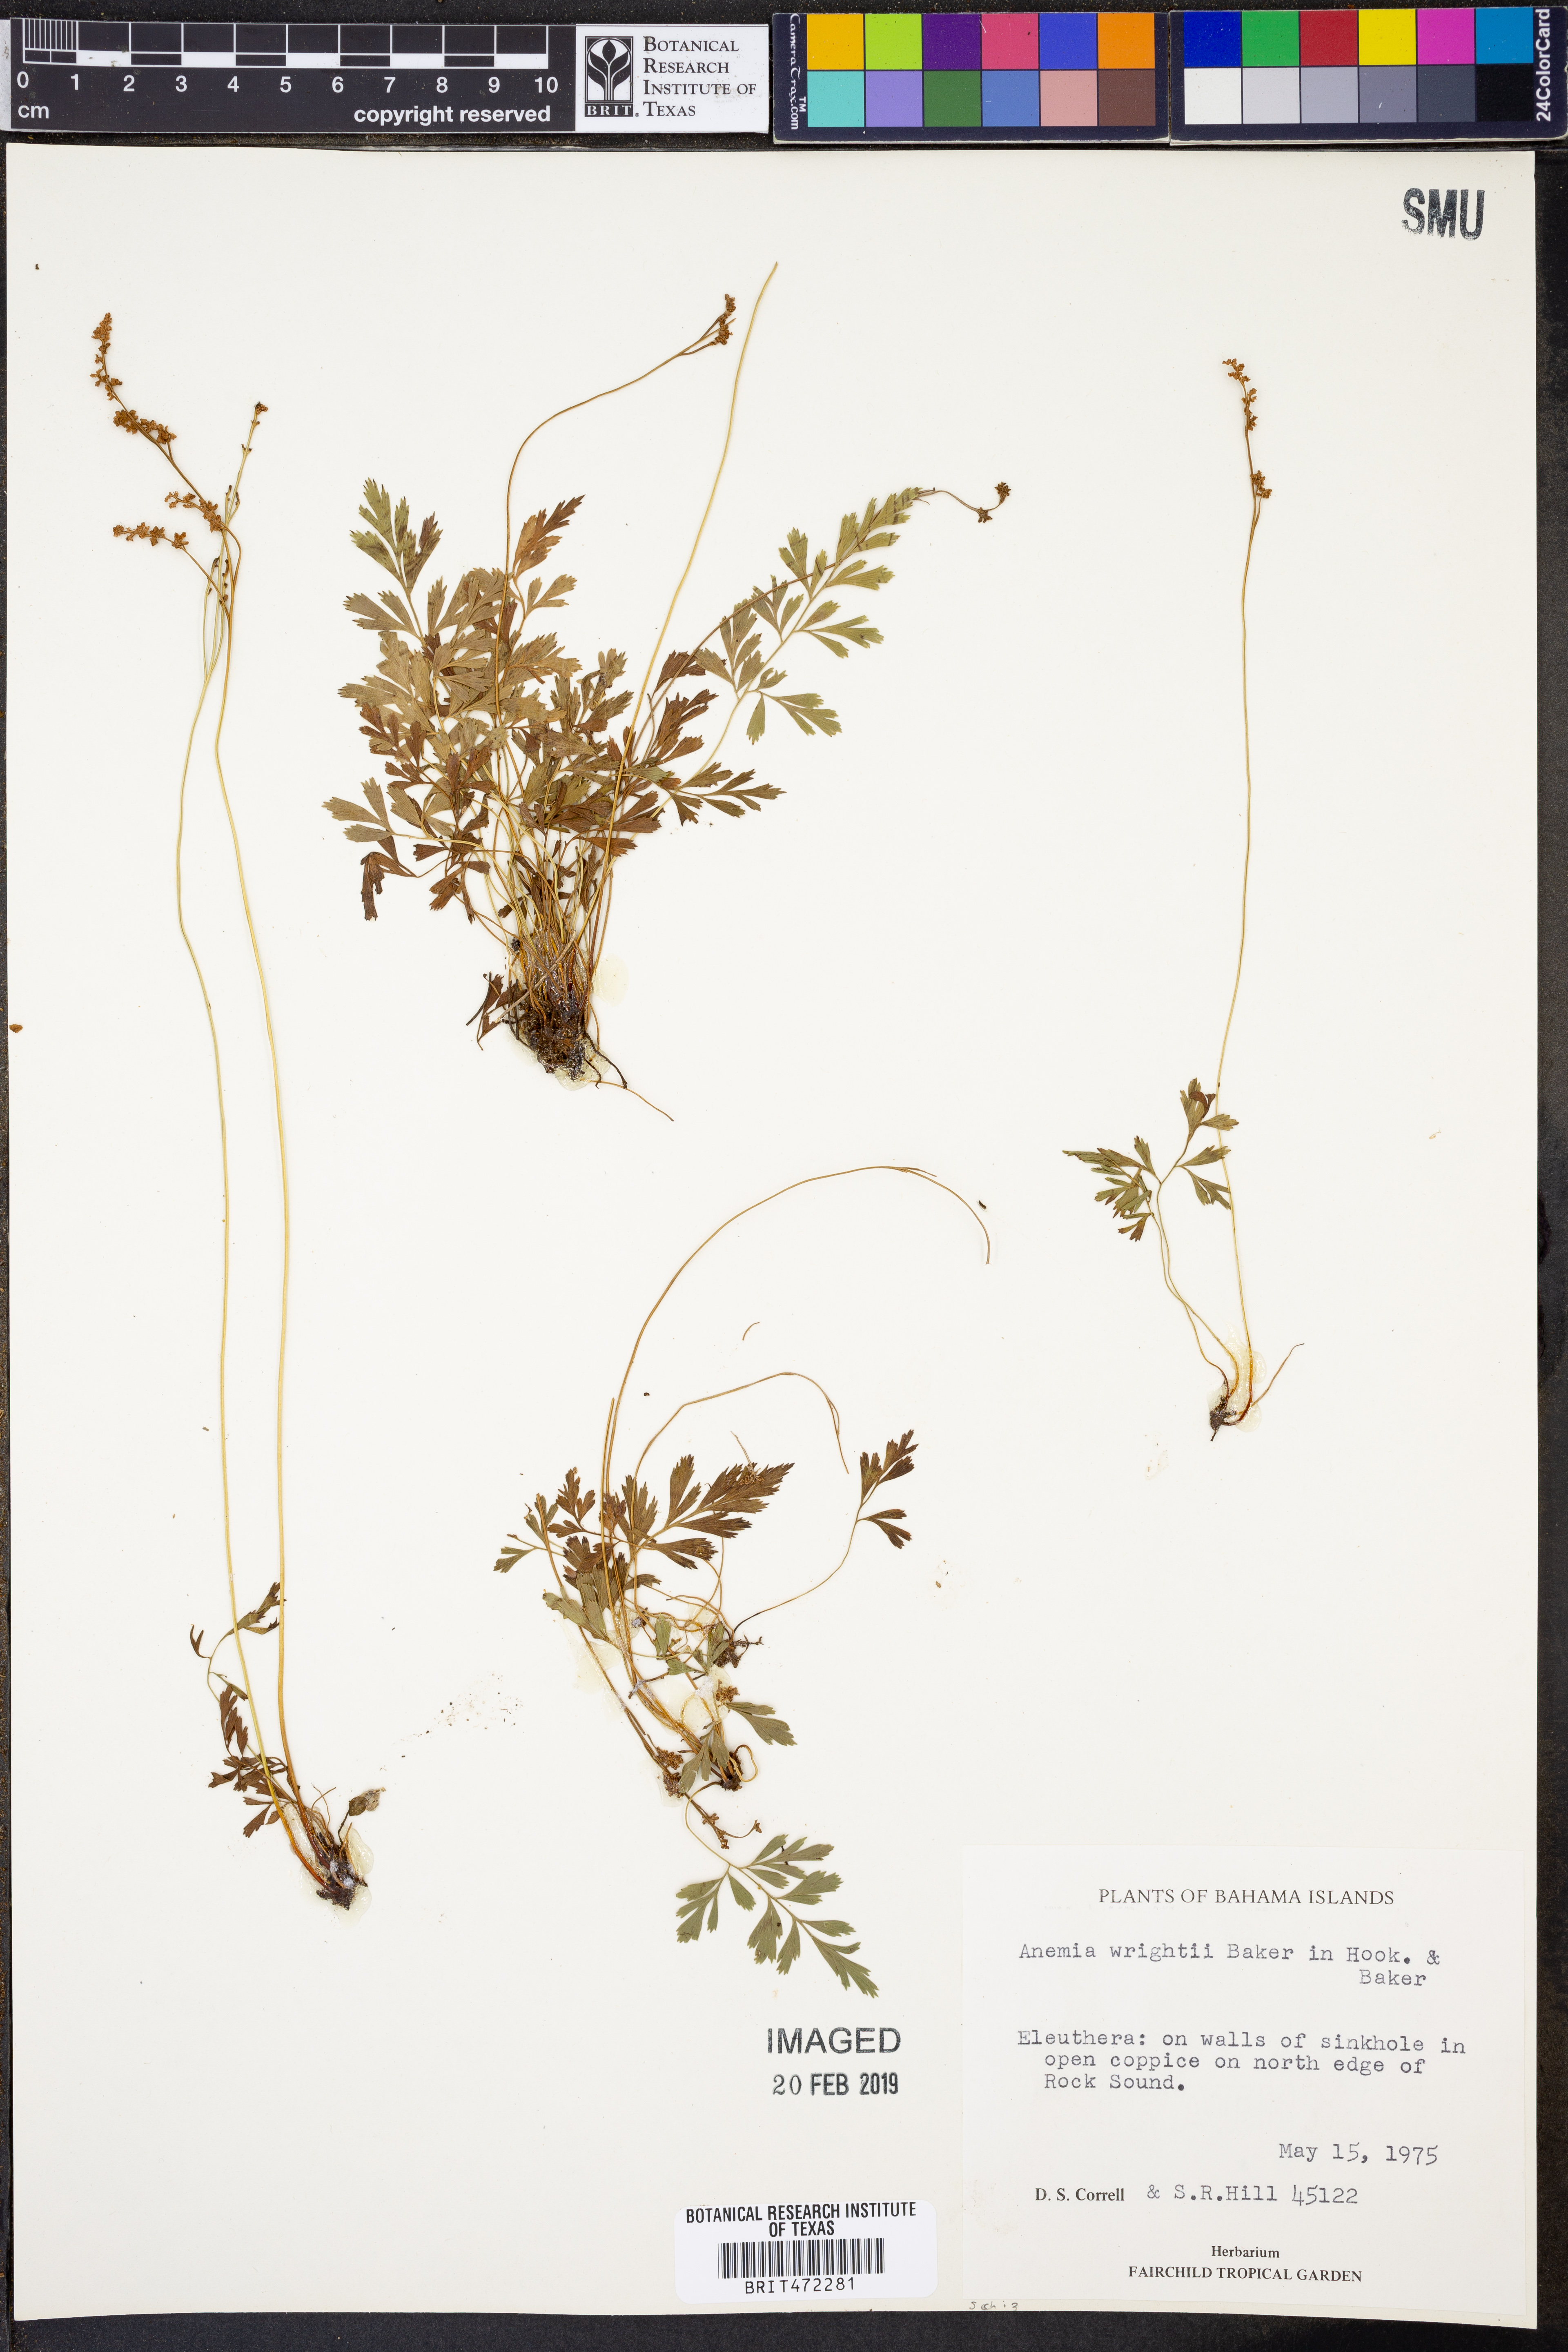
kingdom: Plantae
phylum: Tracheophyta
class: Polypodiopsida
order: Schizaeales
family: Anemiaceae
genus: Anemia
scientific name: Anemia wrightii
